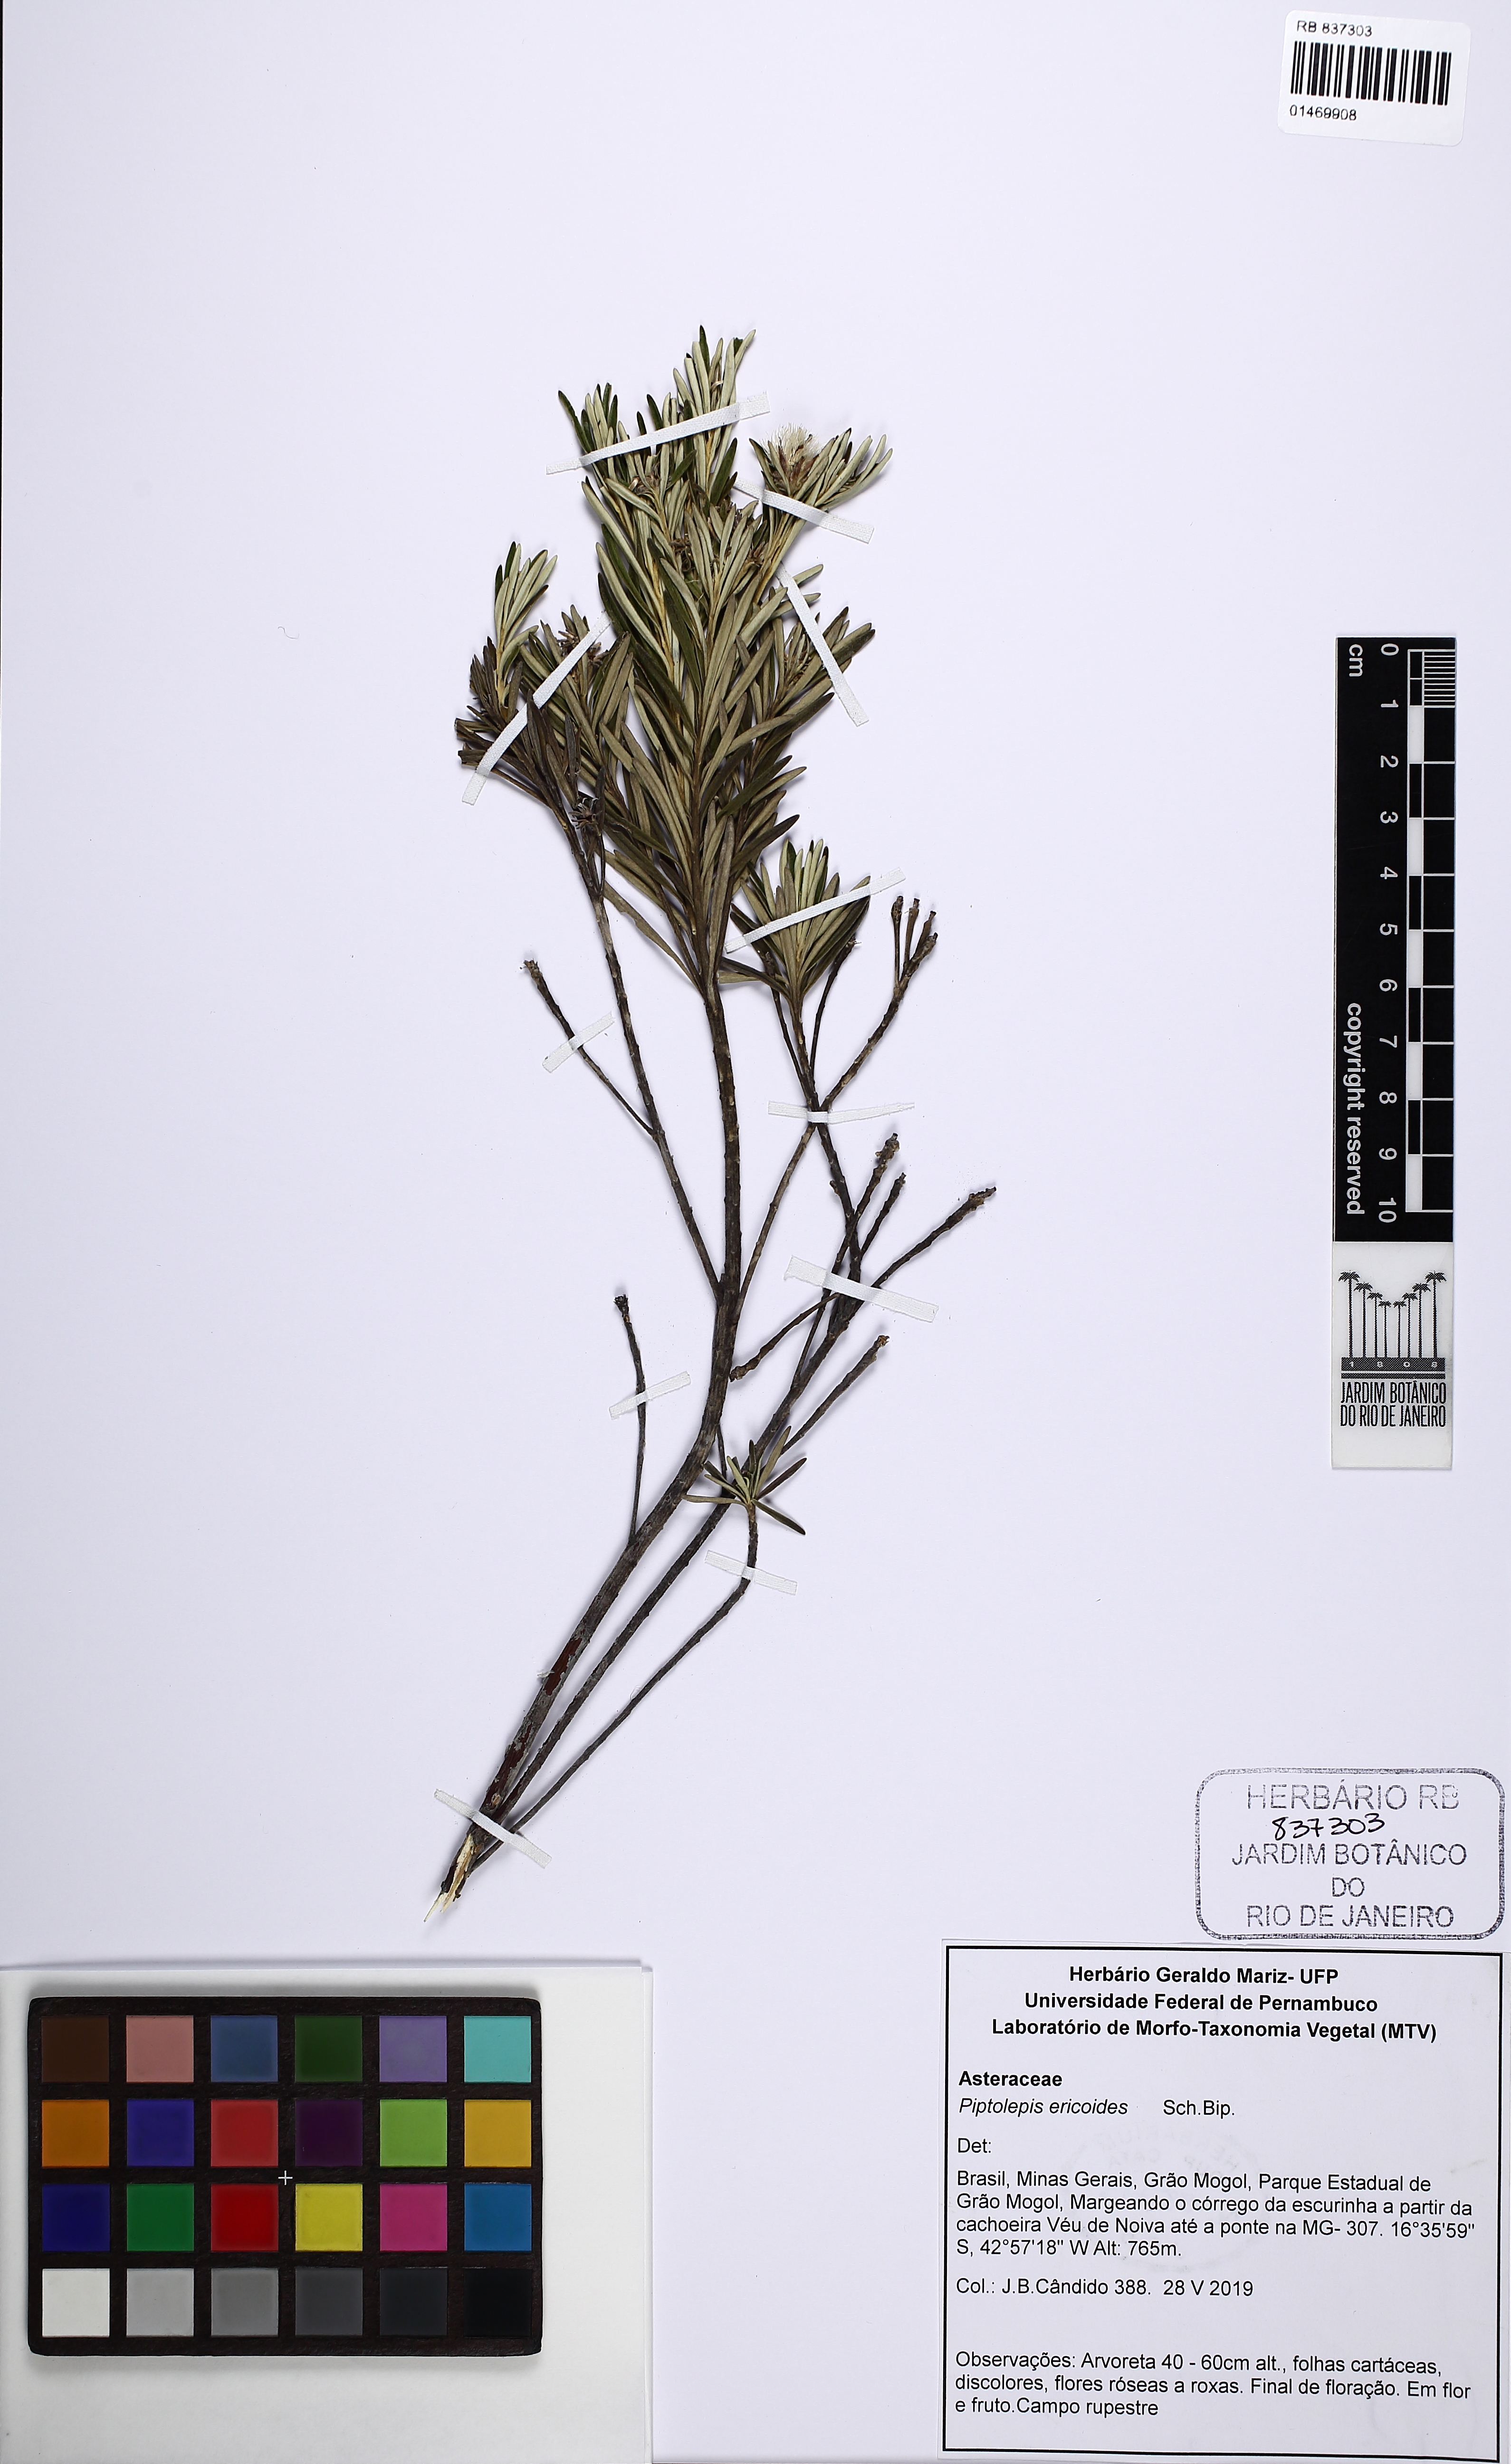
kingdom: Plantae
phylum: Tracheophyta
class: Magnoliopsida
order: Asterales
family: Asteraceae
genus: Piptolepis
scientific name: Piptolepis ericoides
